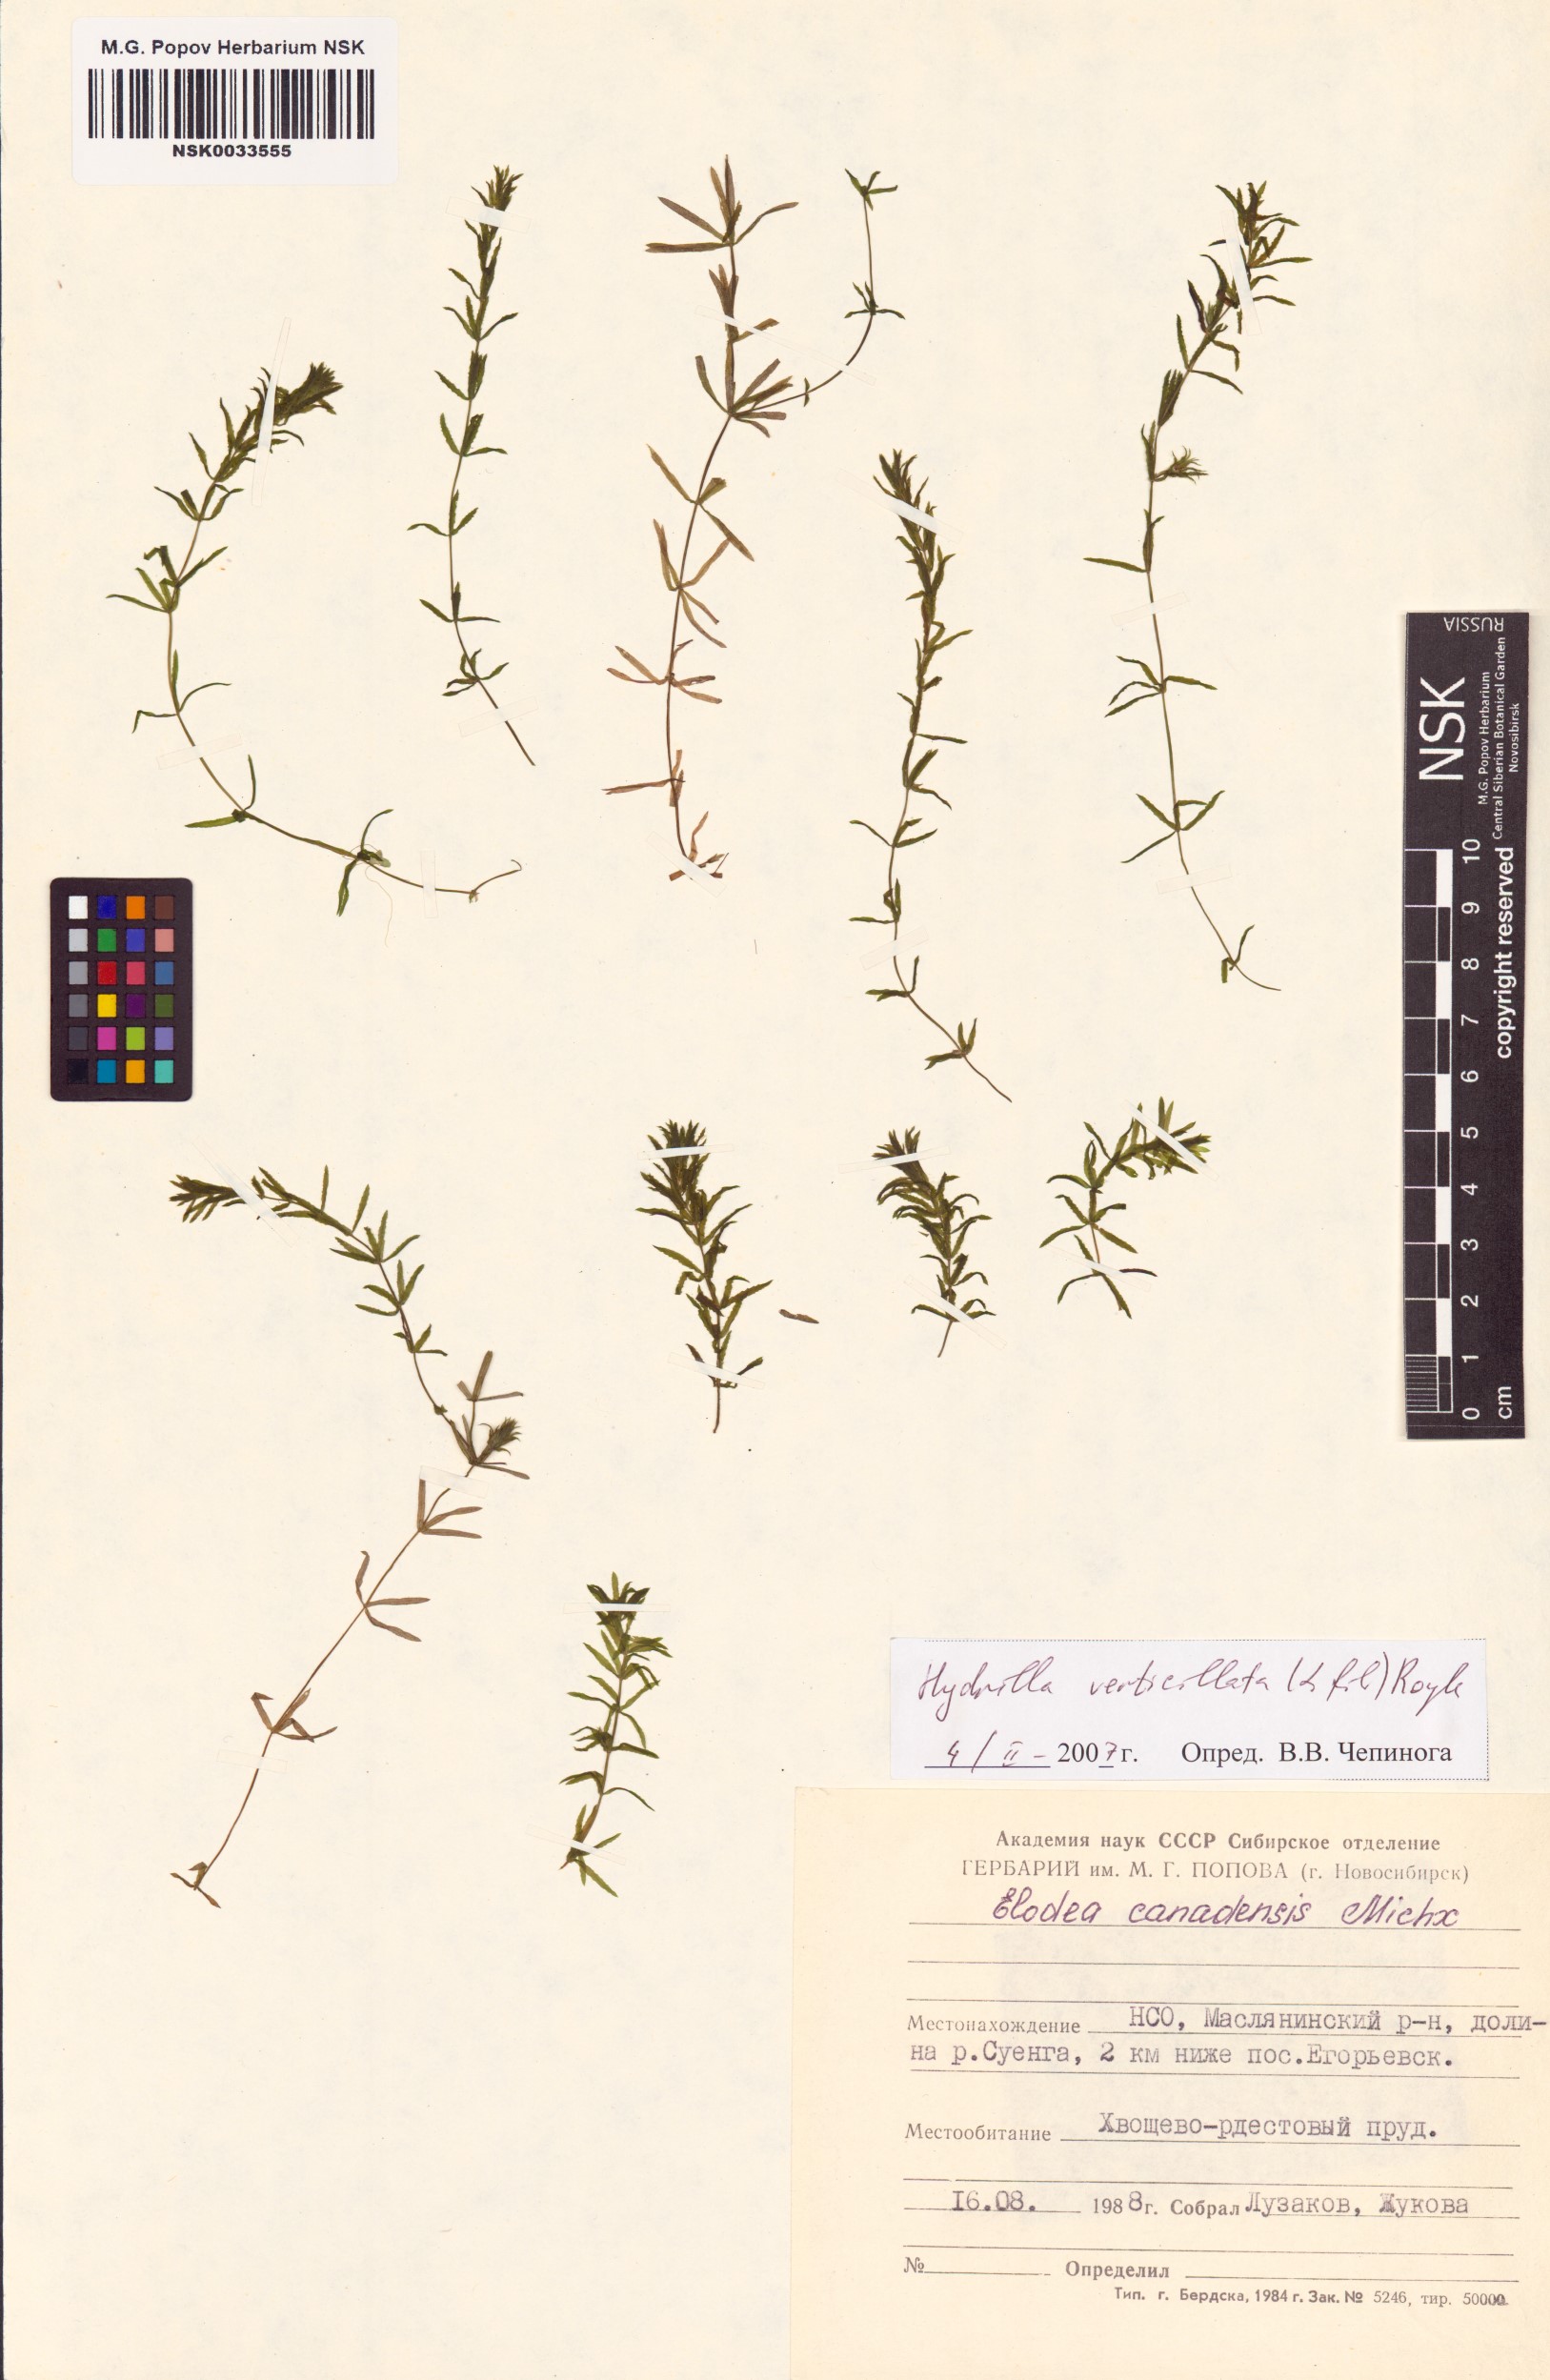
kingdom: Plantae
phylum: Tracheophyta
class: Liliopsida
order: Alismatales
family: Hydrocharitaceae
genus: Hydrilla
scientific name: Hydrilla verticillata
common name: Florida-elodea
